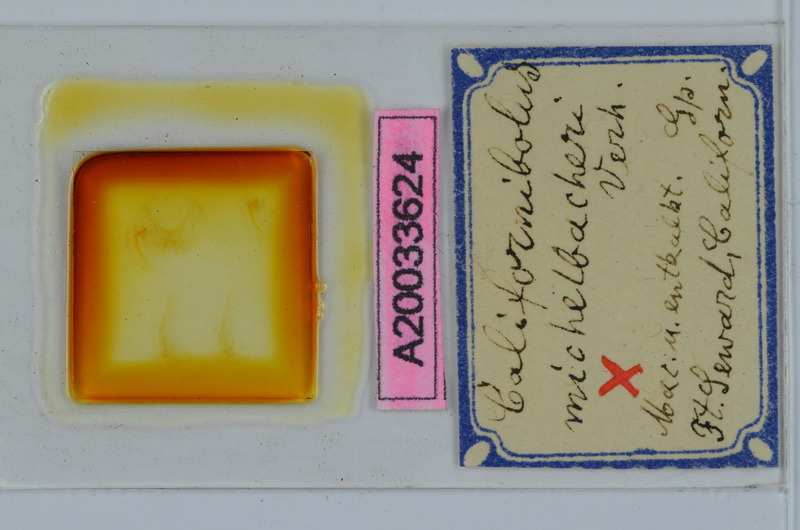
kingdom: Animalia
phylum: Arthropoda
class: Diplopoda
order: Spirobolida
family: Spirobolidae
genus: Tylobolus
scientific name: Tylobolus uncigerus
